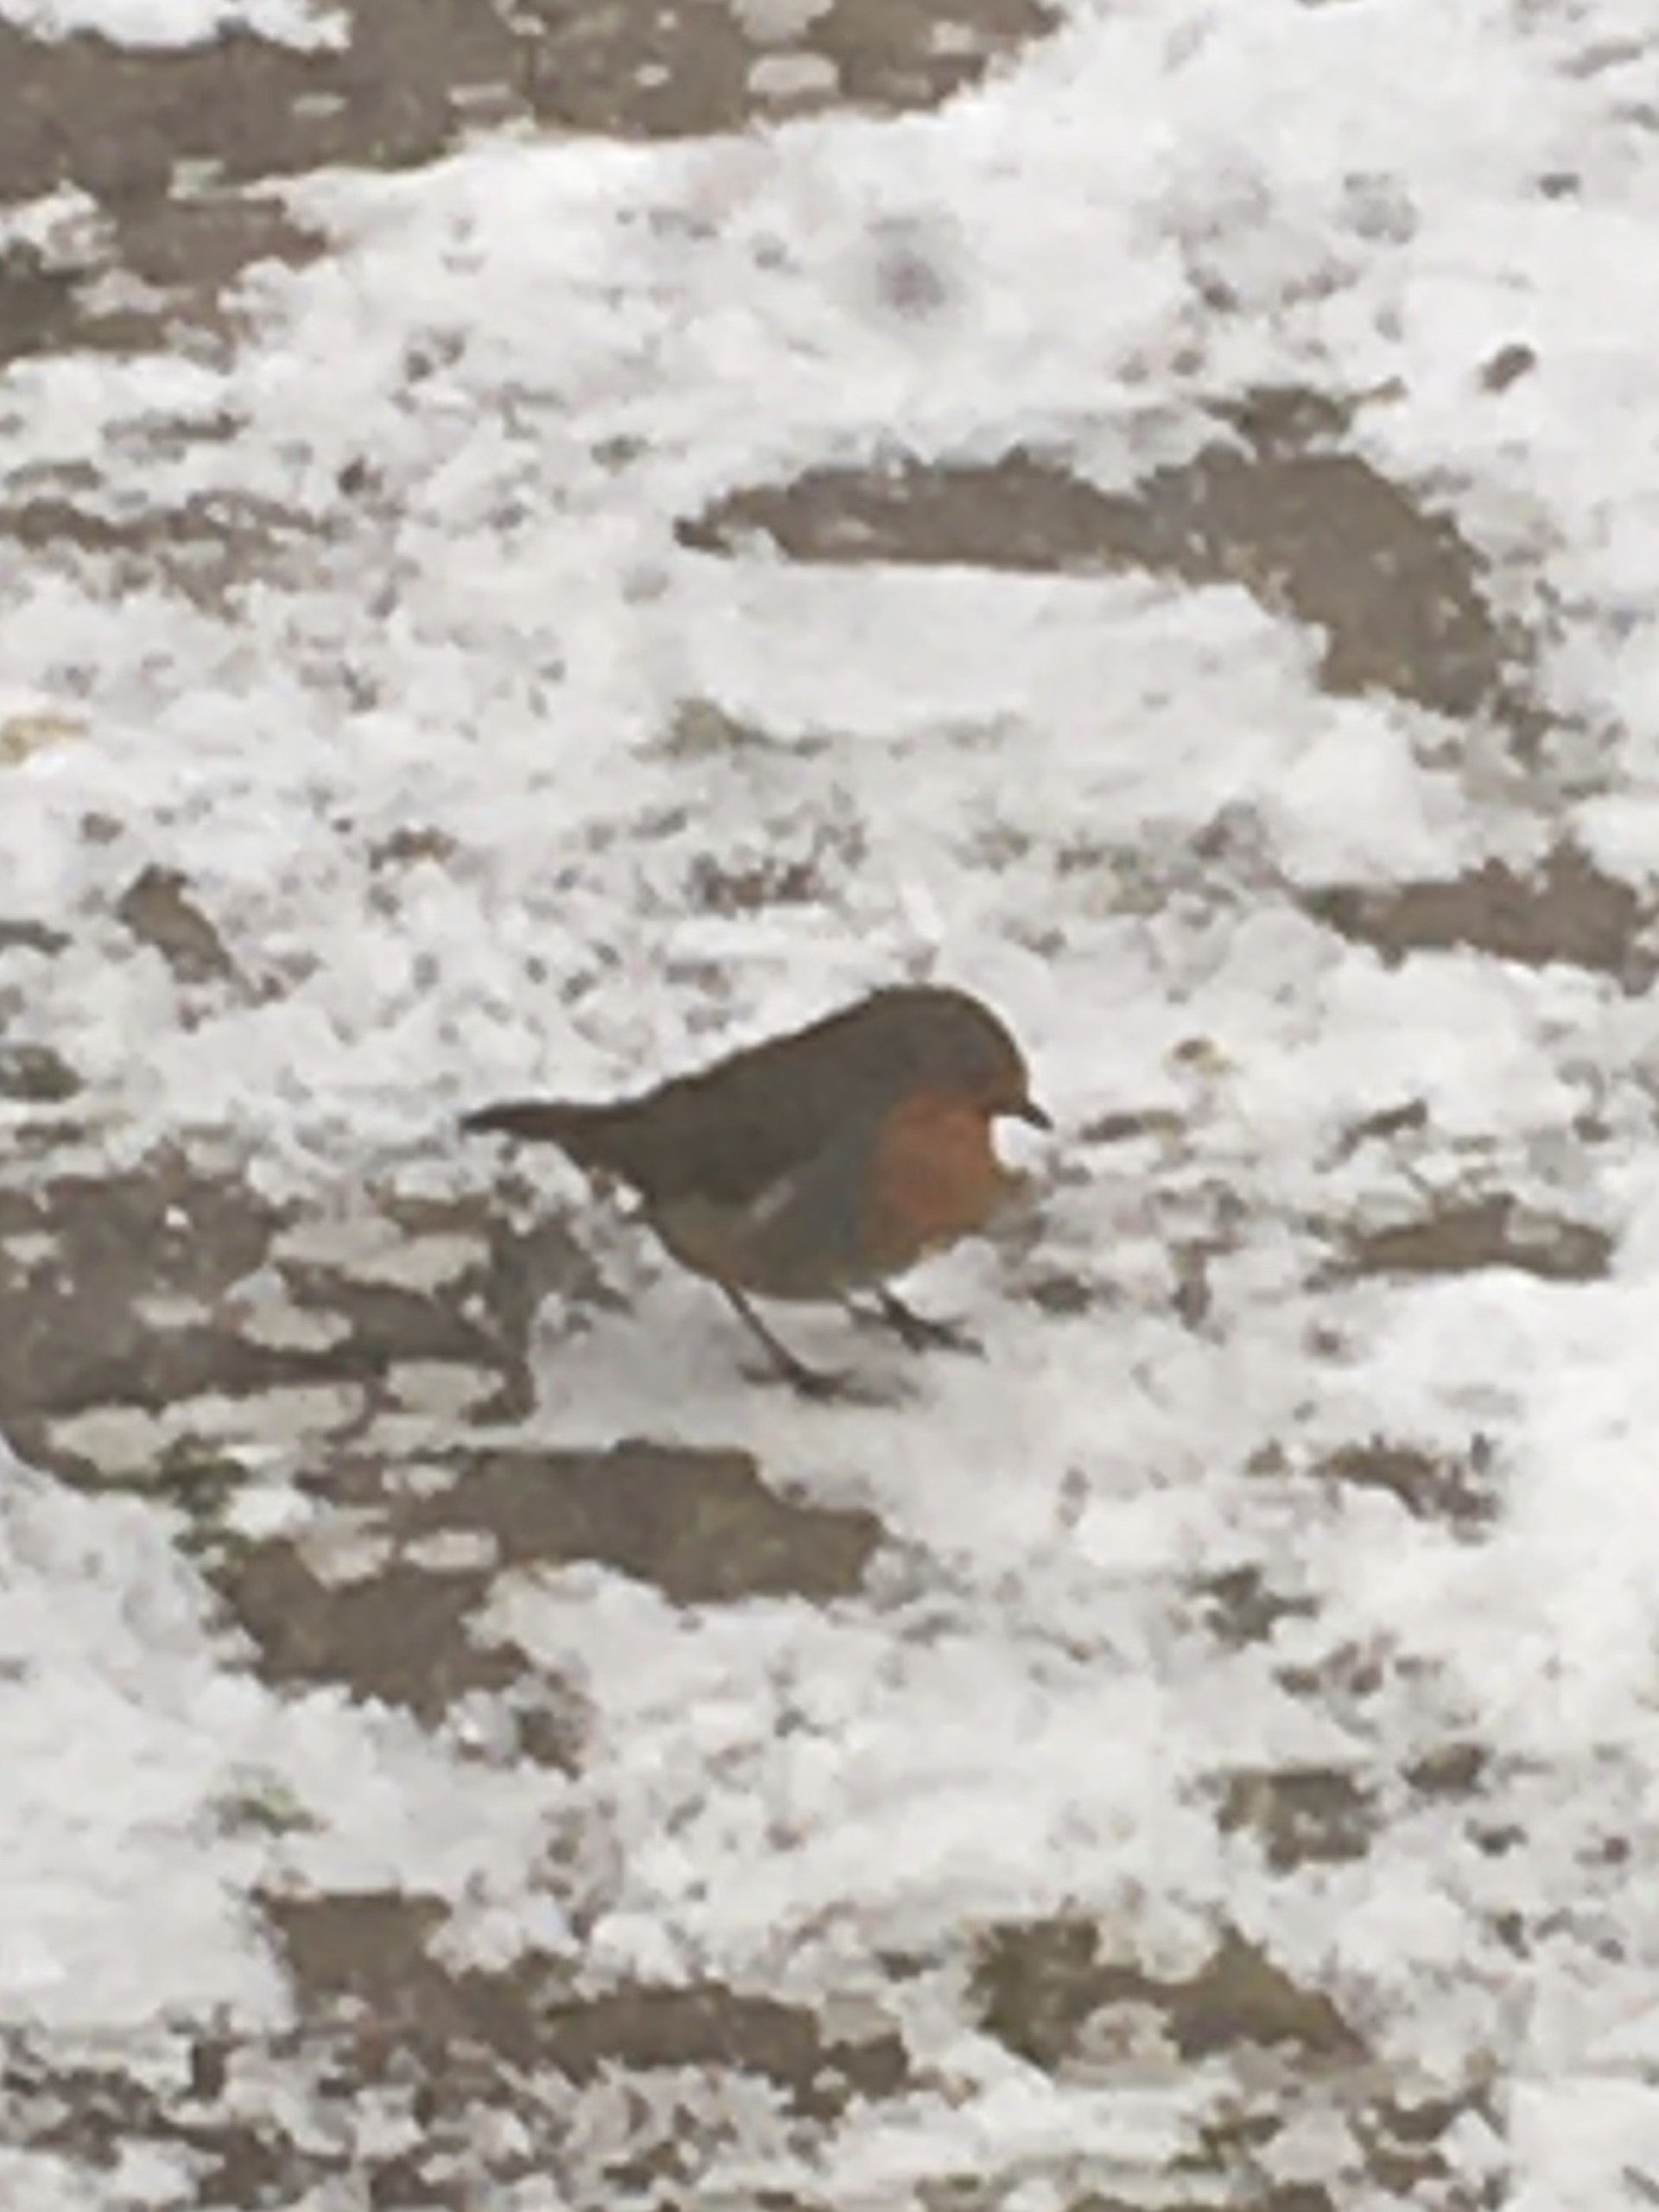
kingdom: Animalia
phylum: Chordata
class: Aves
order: Passeriformes
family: Muscicapidae
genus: Erithacus
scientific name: Erithacus rubecula
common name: Rødhals/rødkælk
